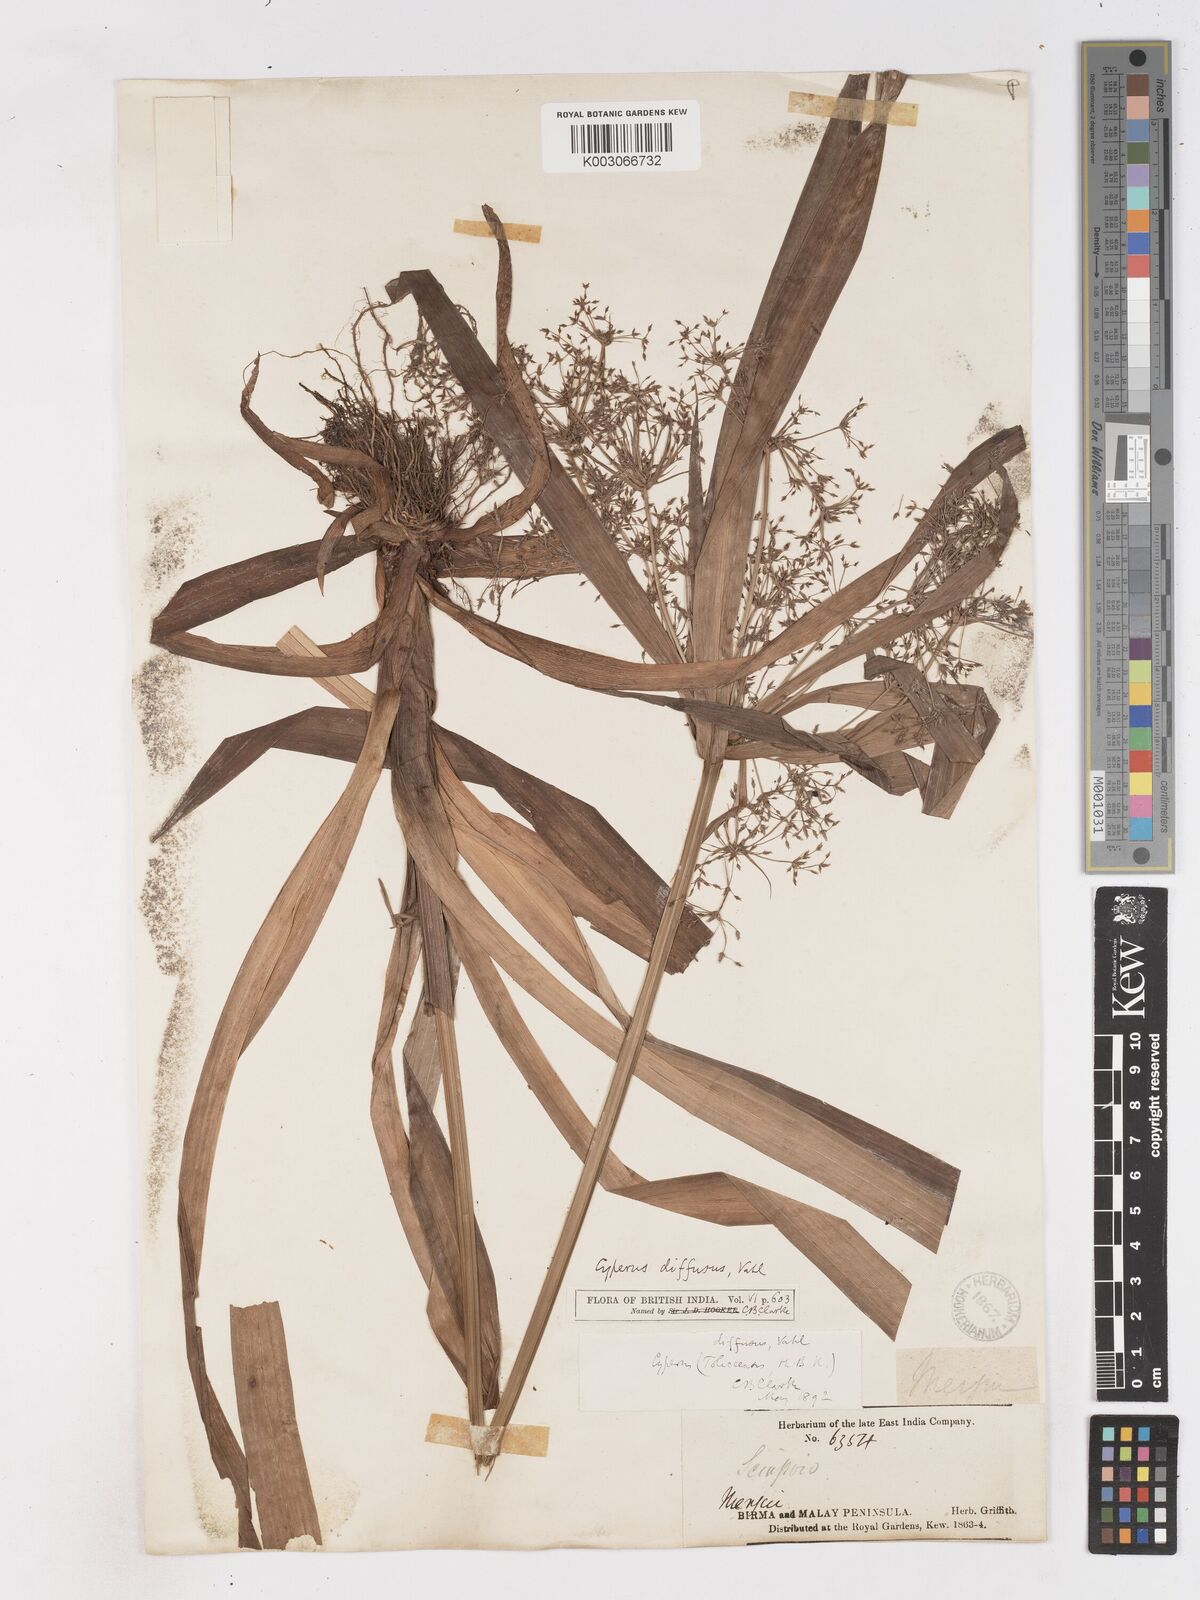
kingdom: Plantae
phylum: Tracheophyta
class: Liliopsida
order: Poales
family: Cyperaceae
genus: Cyperus
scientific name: Cyperus diffusus
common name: Dwarf umbrella grass
